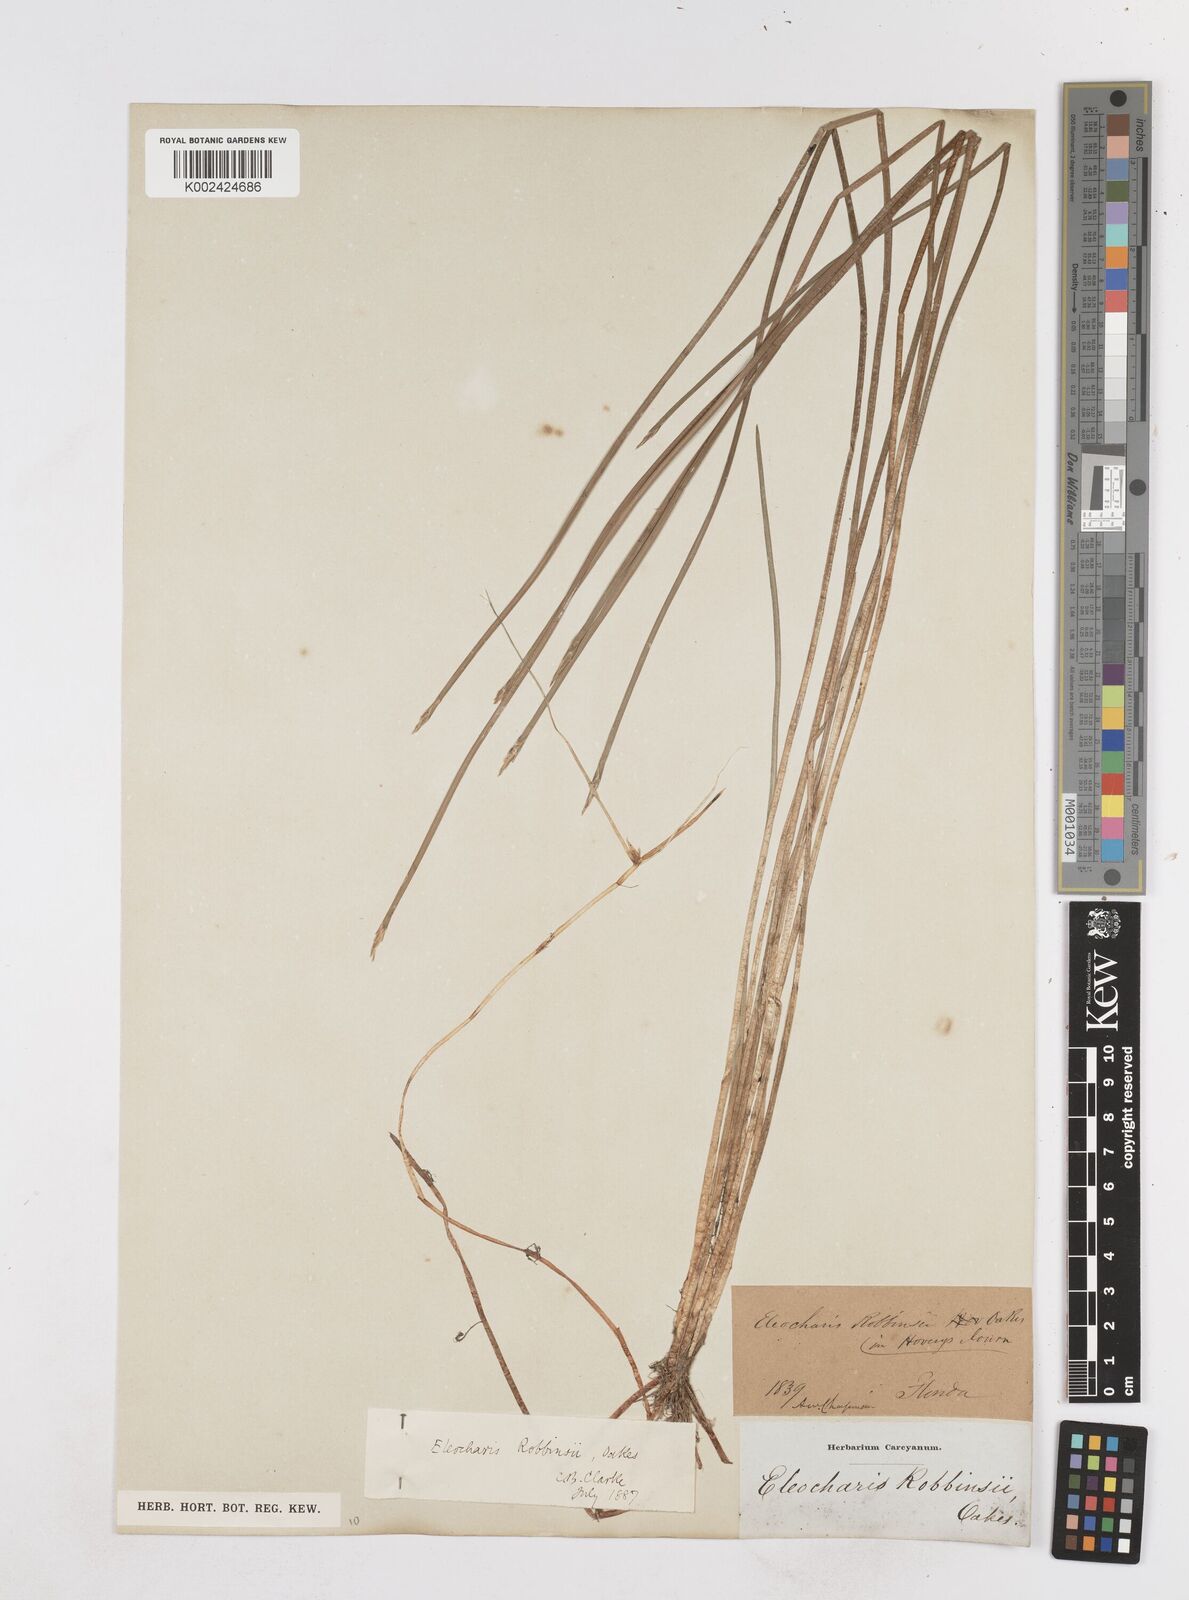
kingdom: Plantae
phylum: Tracheophyta
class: Liliopsida
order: Poales
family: Cyperaceae
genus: Eleocharis
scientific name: Eleocharis robbinsii
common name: Robbins' spikerush
